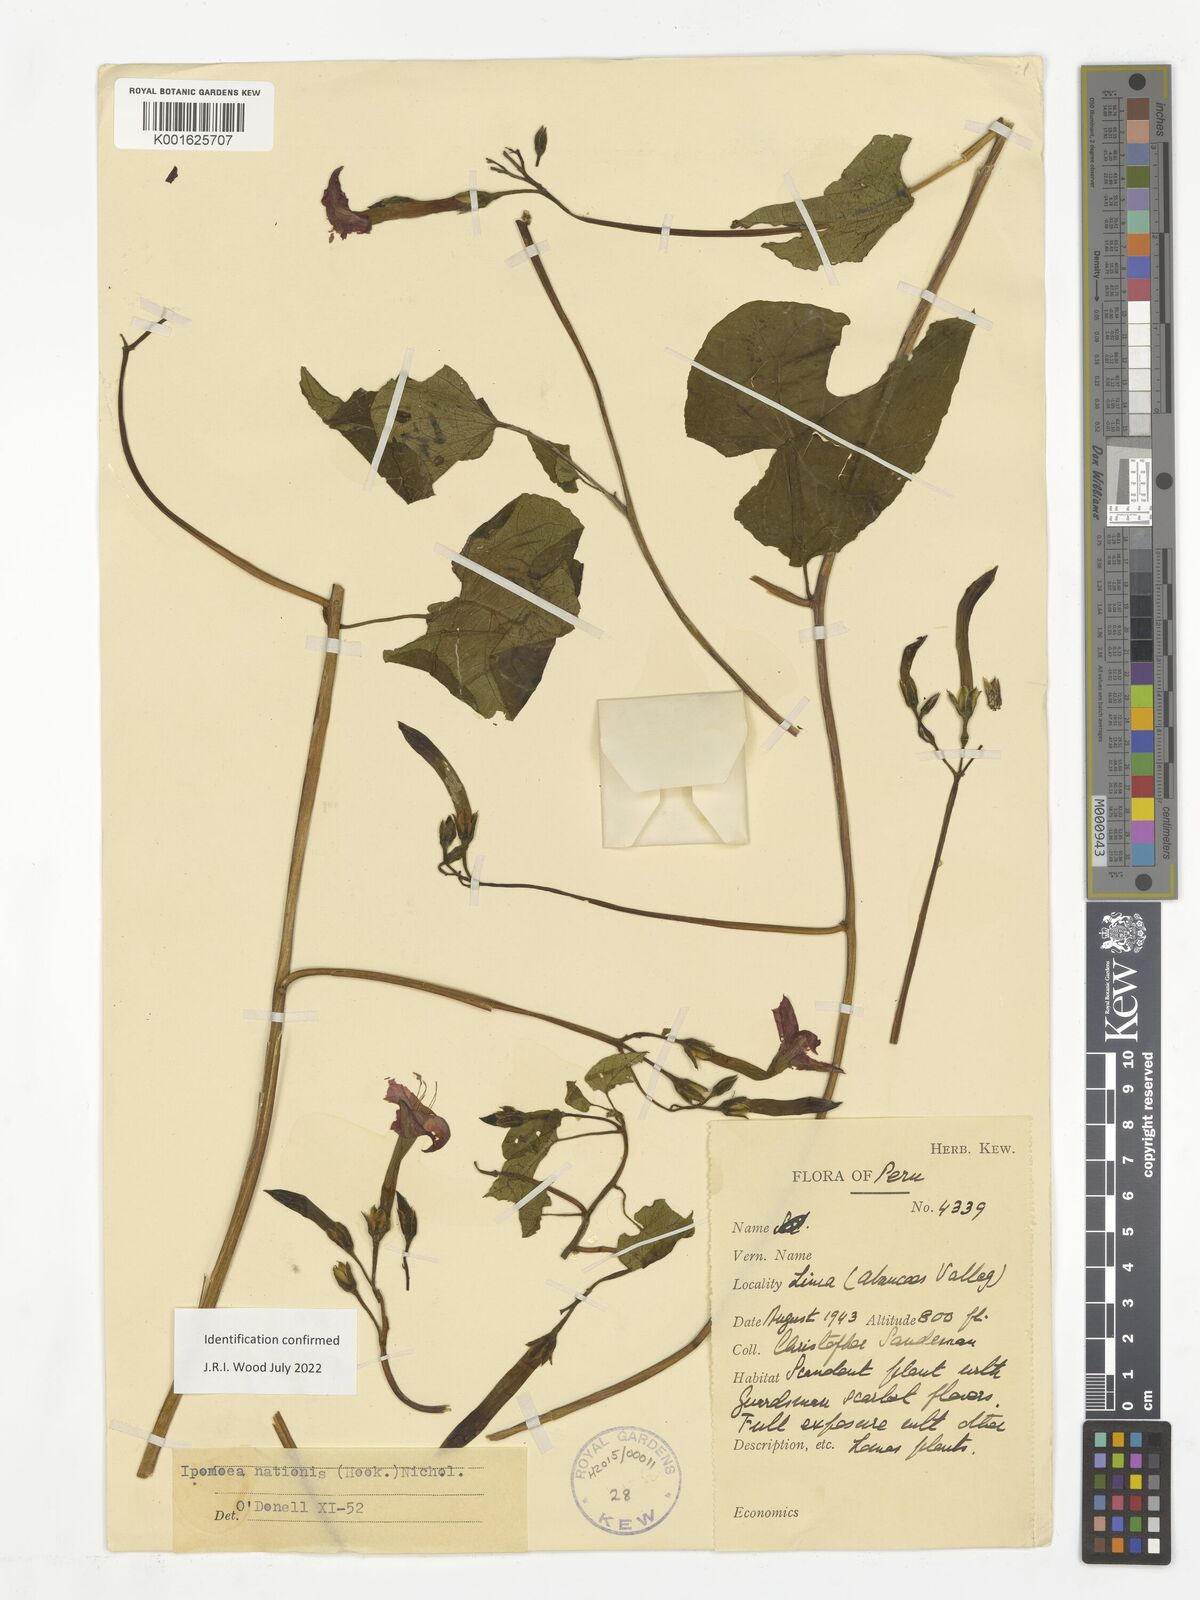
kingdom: Plantae
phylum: Tracheophyta
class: Magnoliopsida
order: Solanales
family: Convolvulaceae
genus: Ipomoea
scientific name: Ipomoea nationis
